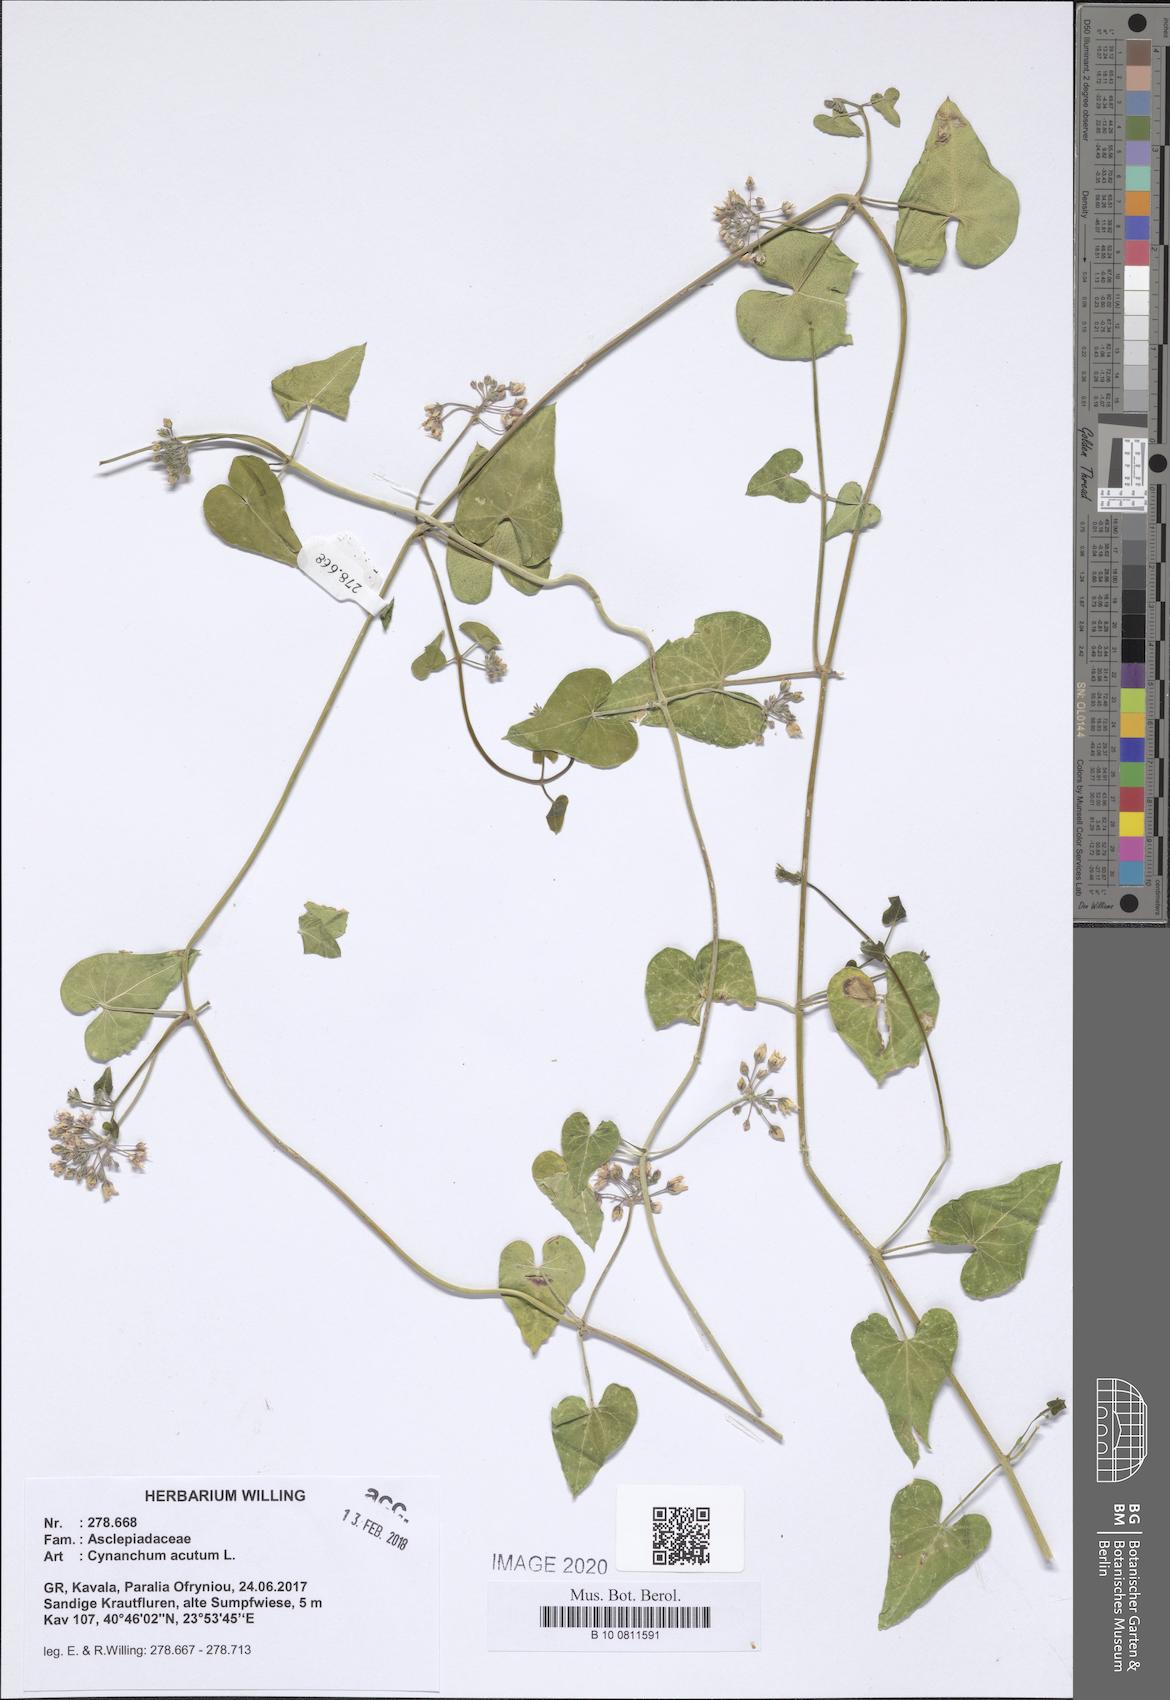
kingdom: Plantae
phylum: Tracheophyta
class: Magnoliopsida
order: Gentianales
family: Apocynaceae
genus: Cynanchum
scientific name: Cynanchum acutum
